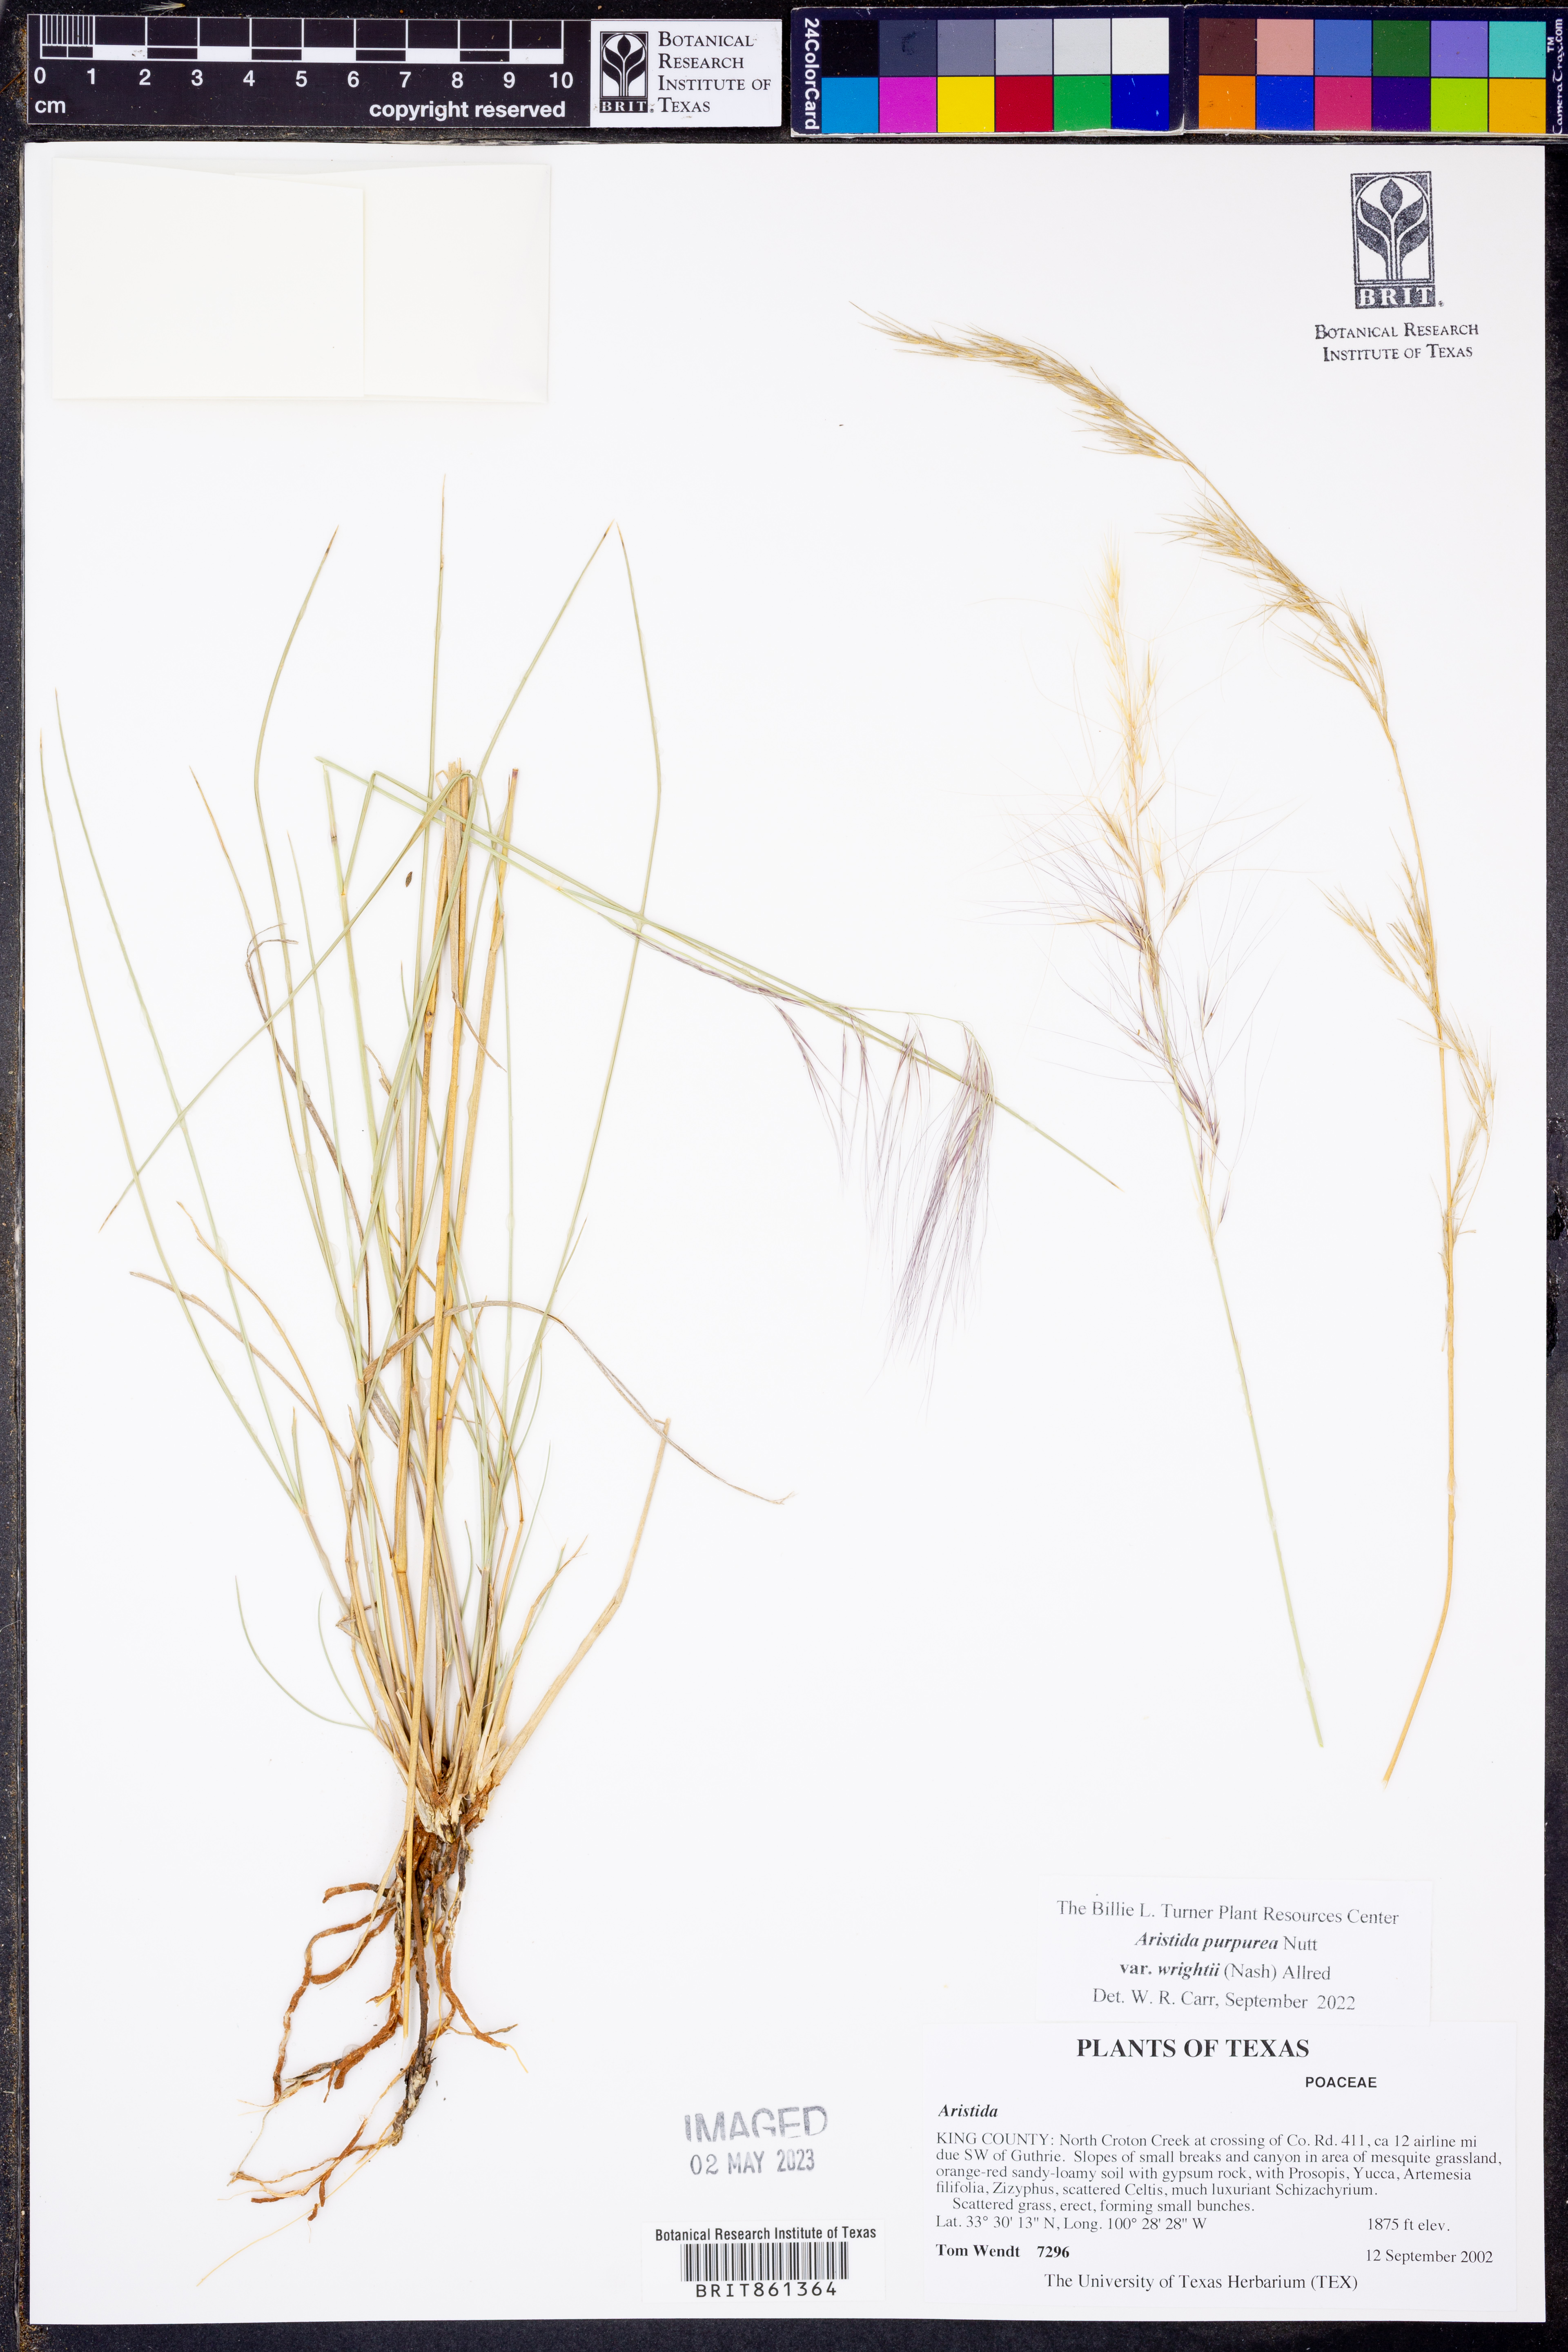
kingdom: Plantae
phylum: Tracheophyta
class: Liliopsida
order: Poales
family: Poaceae
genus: Aristida
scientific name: Aristida wrightii
